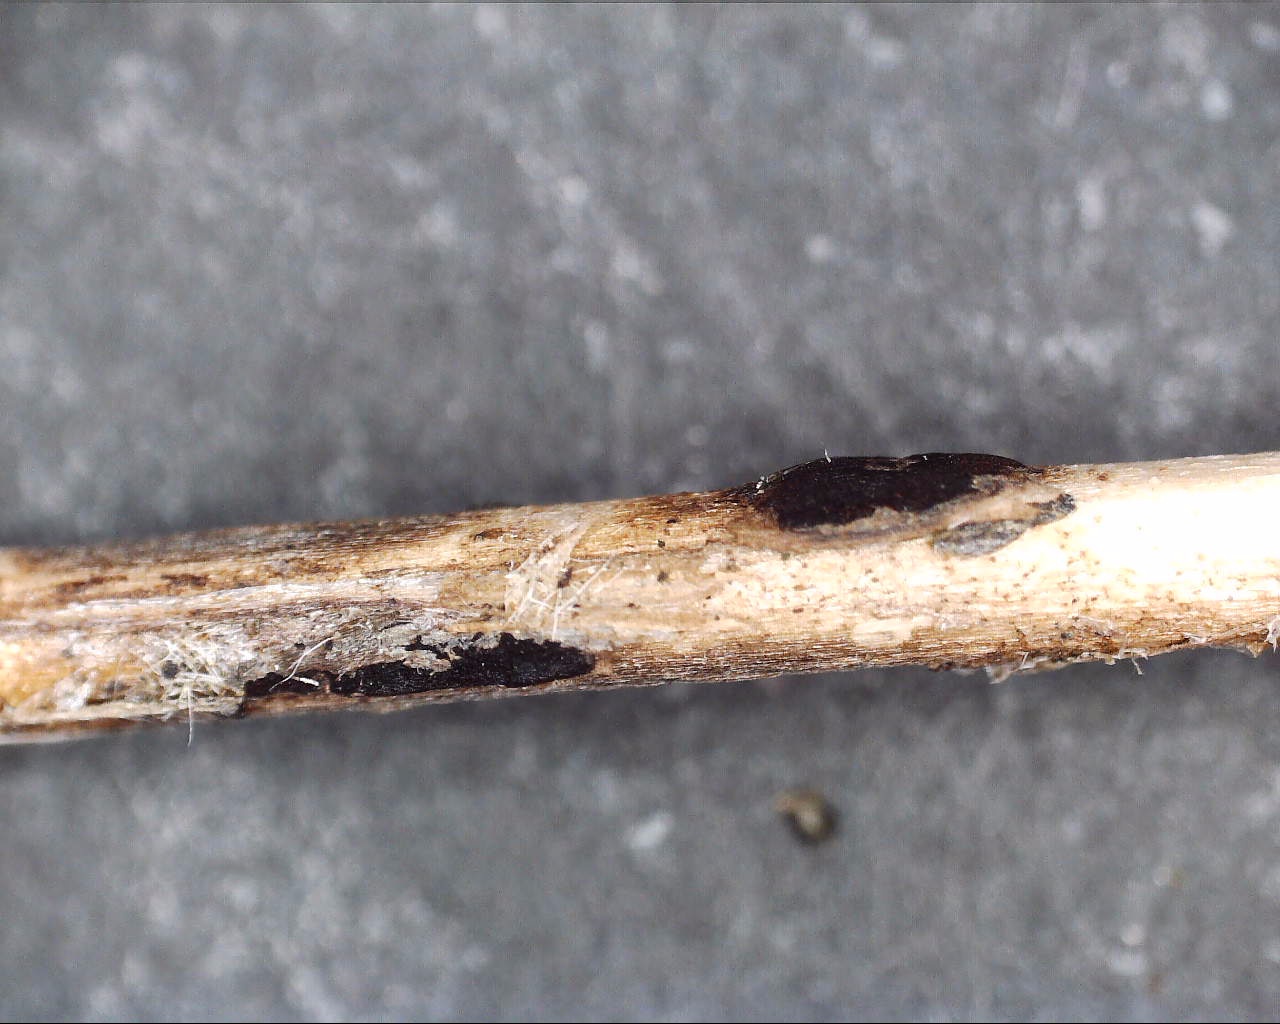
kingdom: Fungi
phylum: Basidiomycota
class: Pucciniomycetes
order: Pucciniales
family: Pucciniaceae
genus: Puccinia
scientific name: Puccinia difformis
